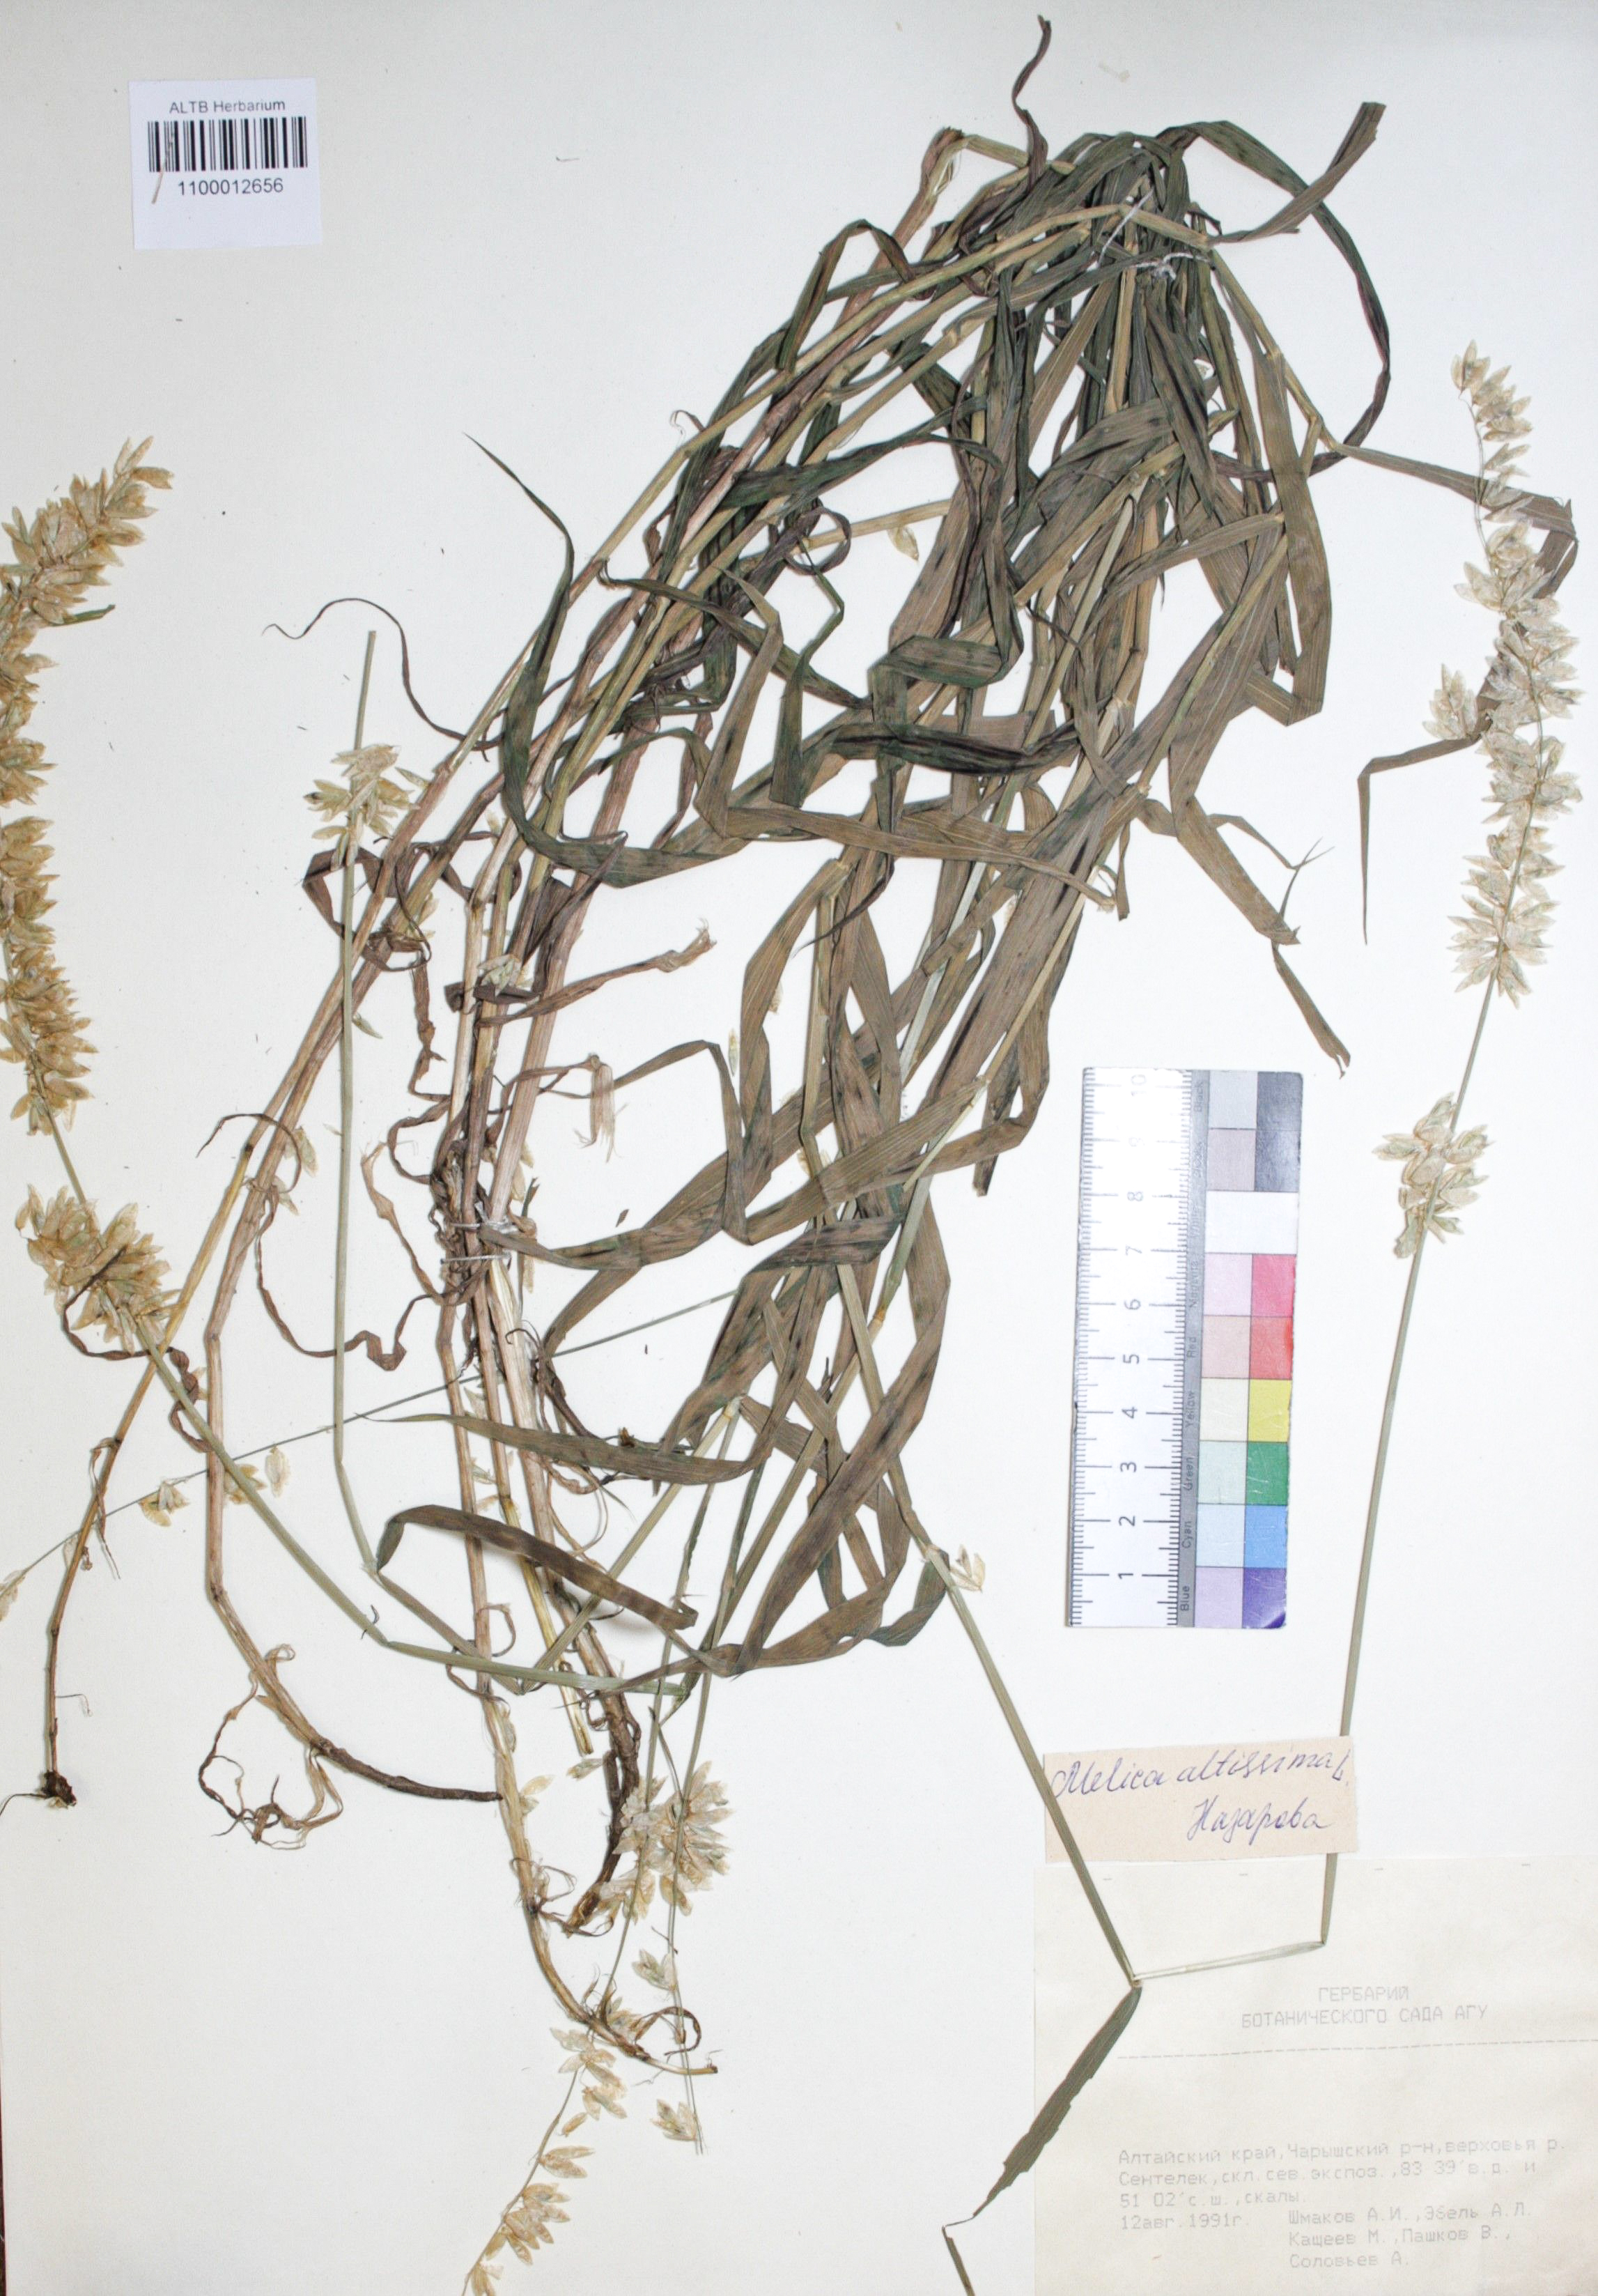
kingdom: Plantae
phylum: Tracheophyta
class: Liliopsida
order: Poales
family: Poaceae
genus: Melica
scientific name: Melica altissima
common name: Siberian melicgrass
